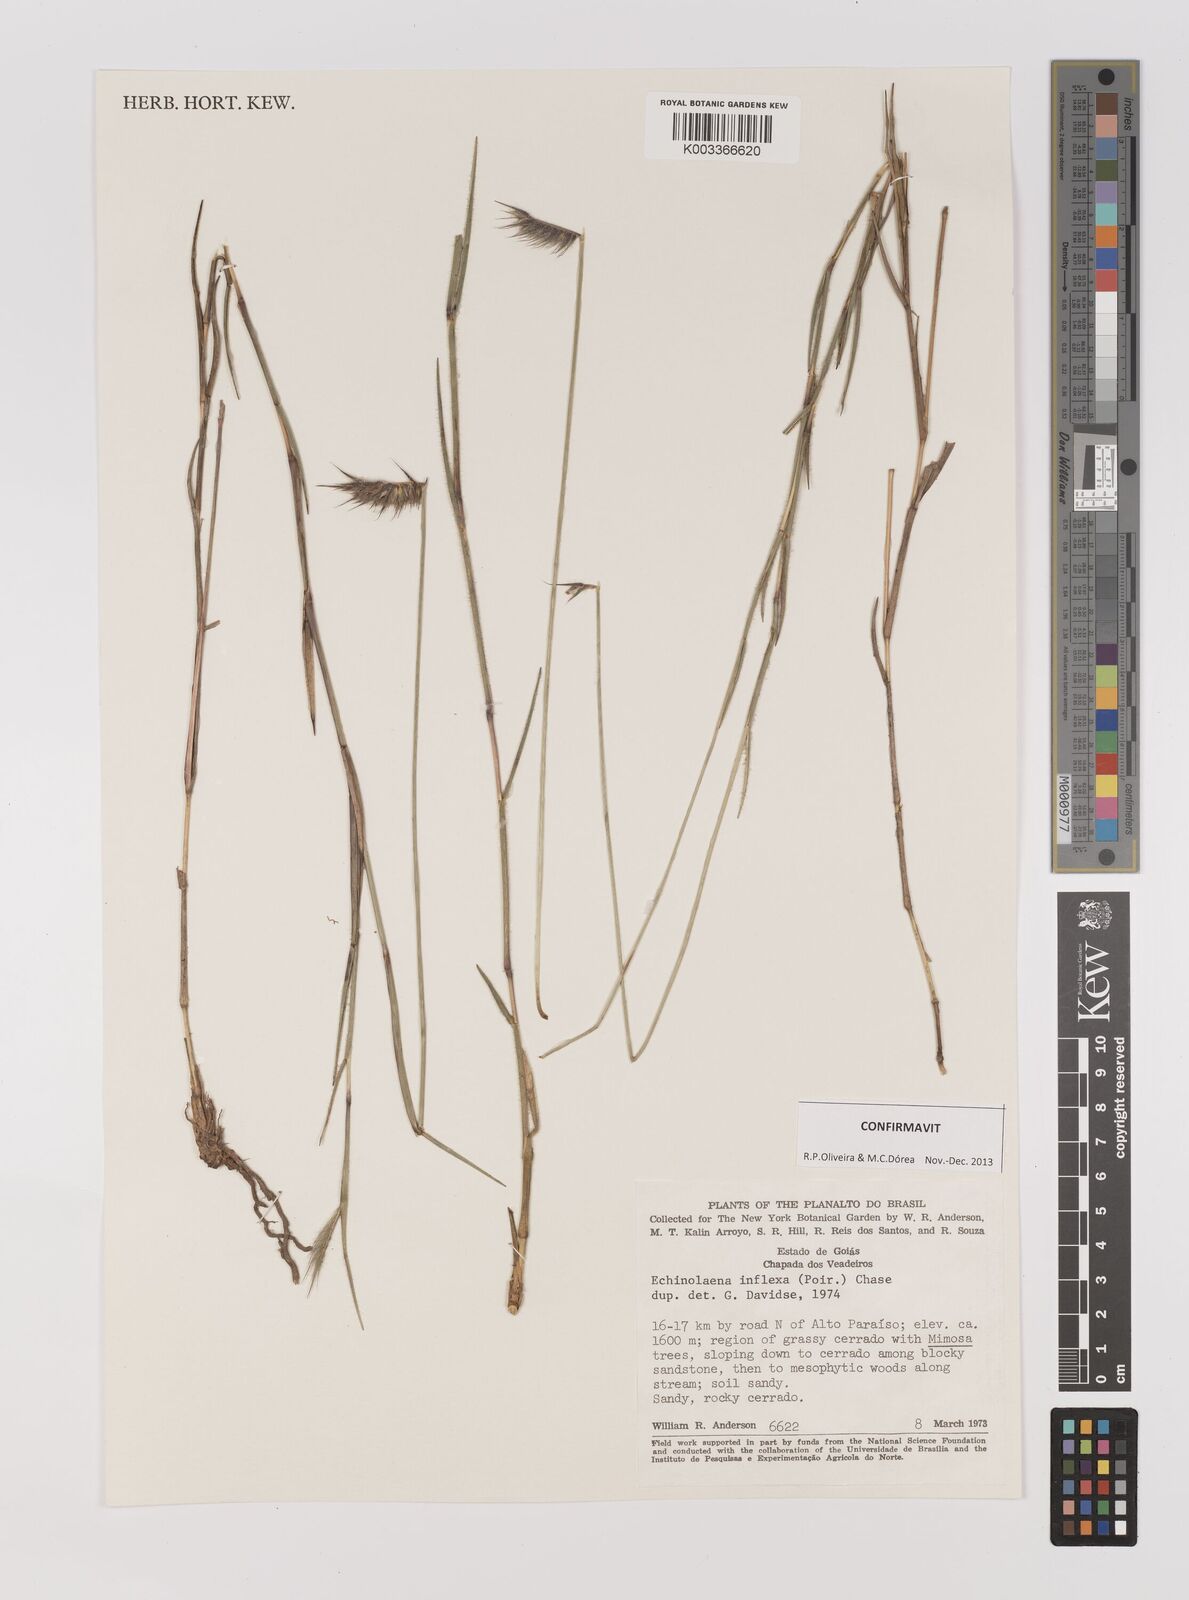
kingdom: Plantae
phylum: Tracheophyta
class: Liliopsida
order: Poales
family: Poaceae
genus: Echinolaena
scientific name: Echinolaena inflexa
